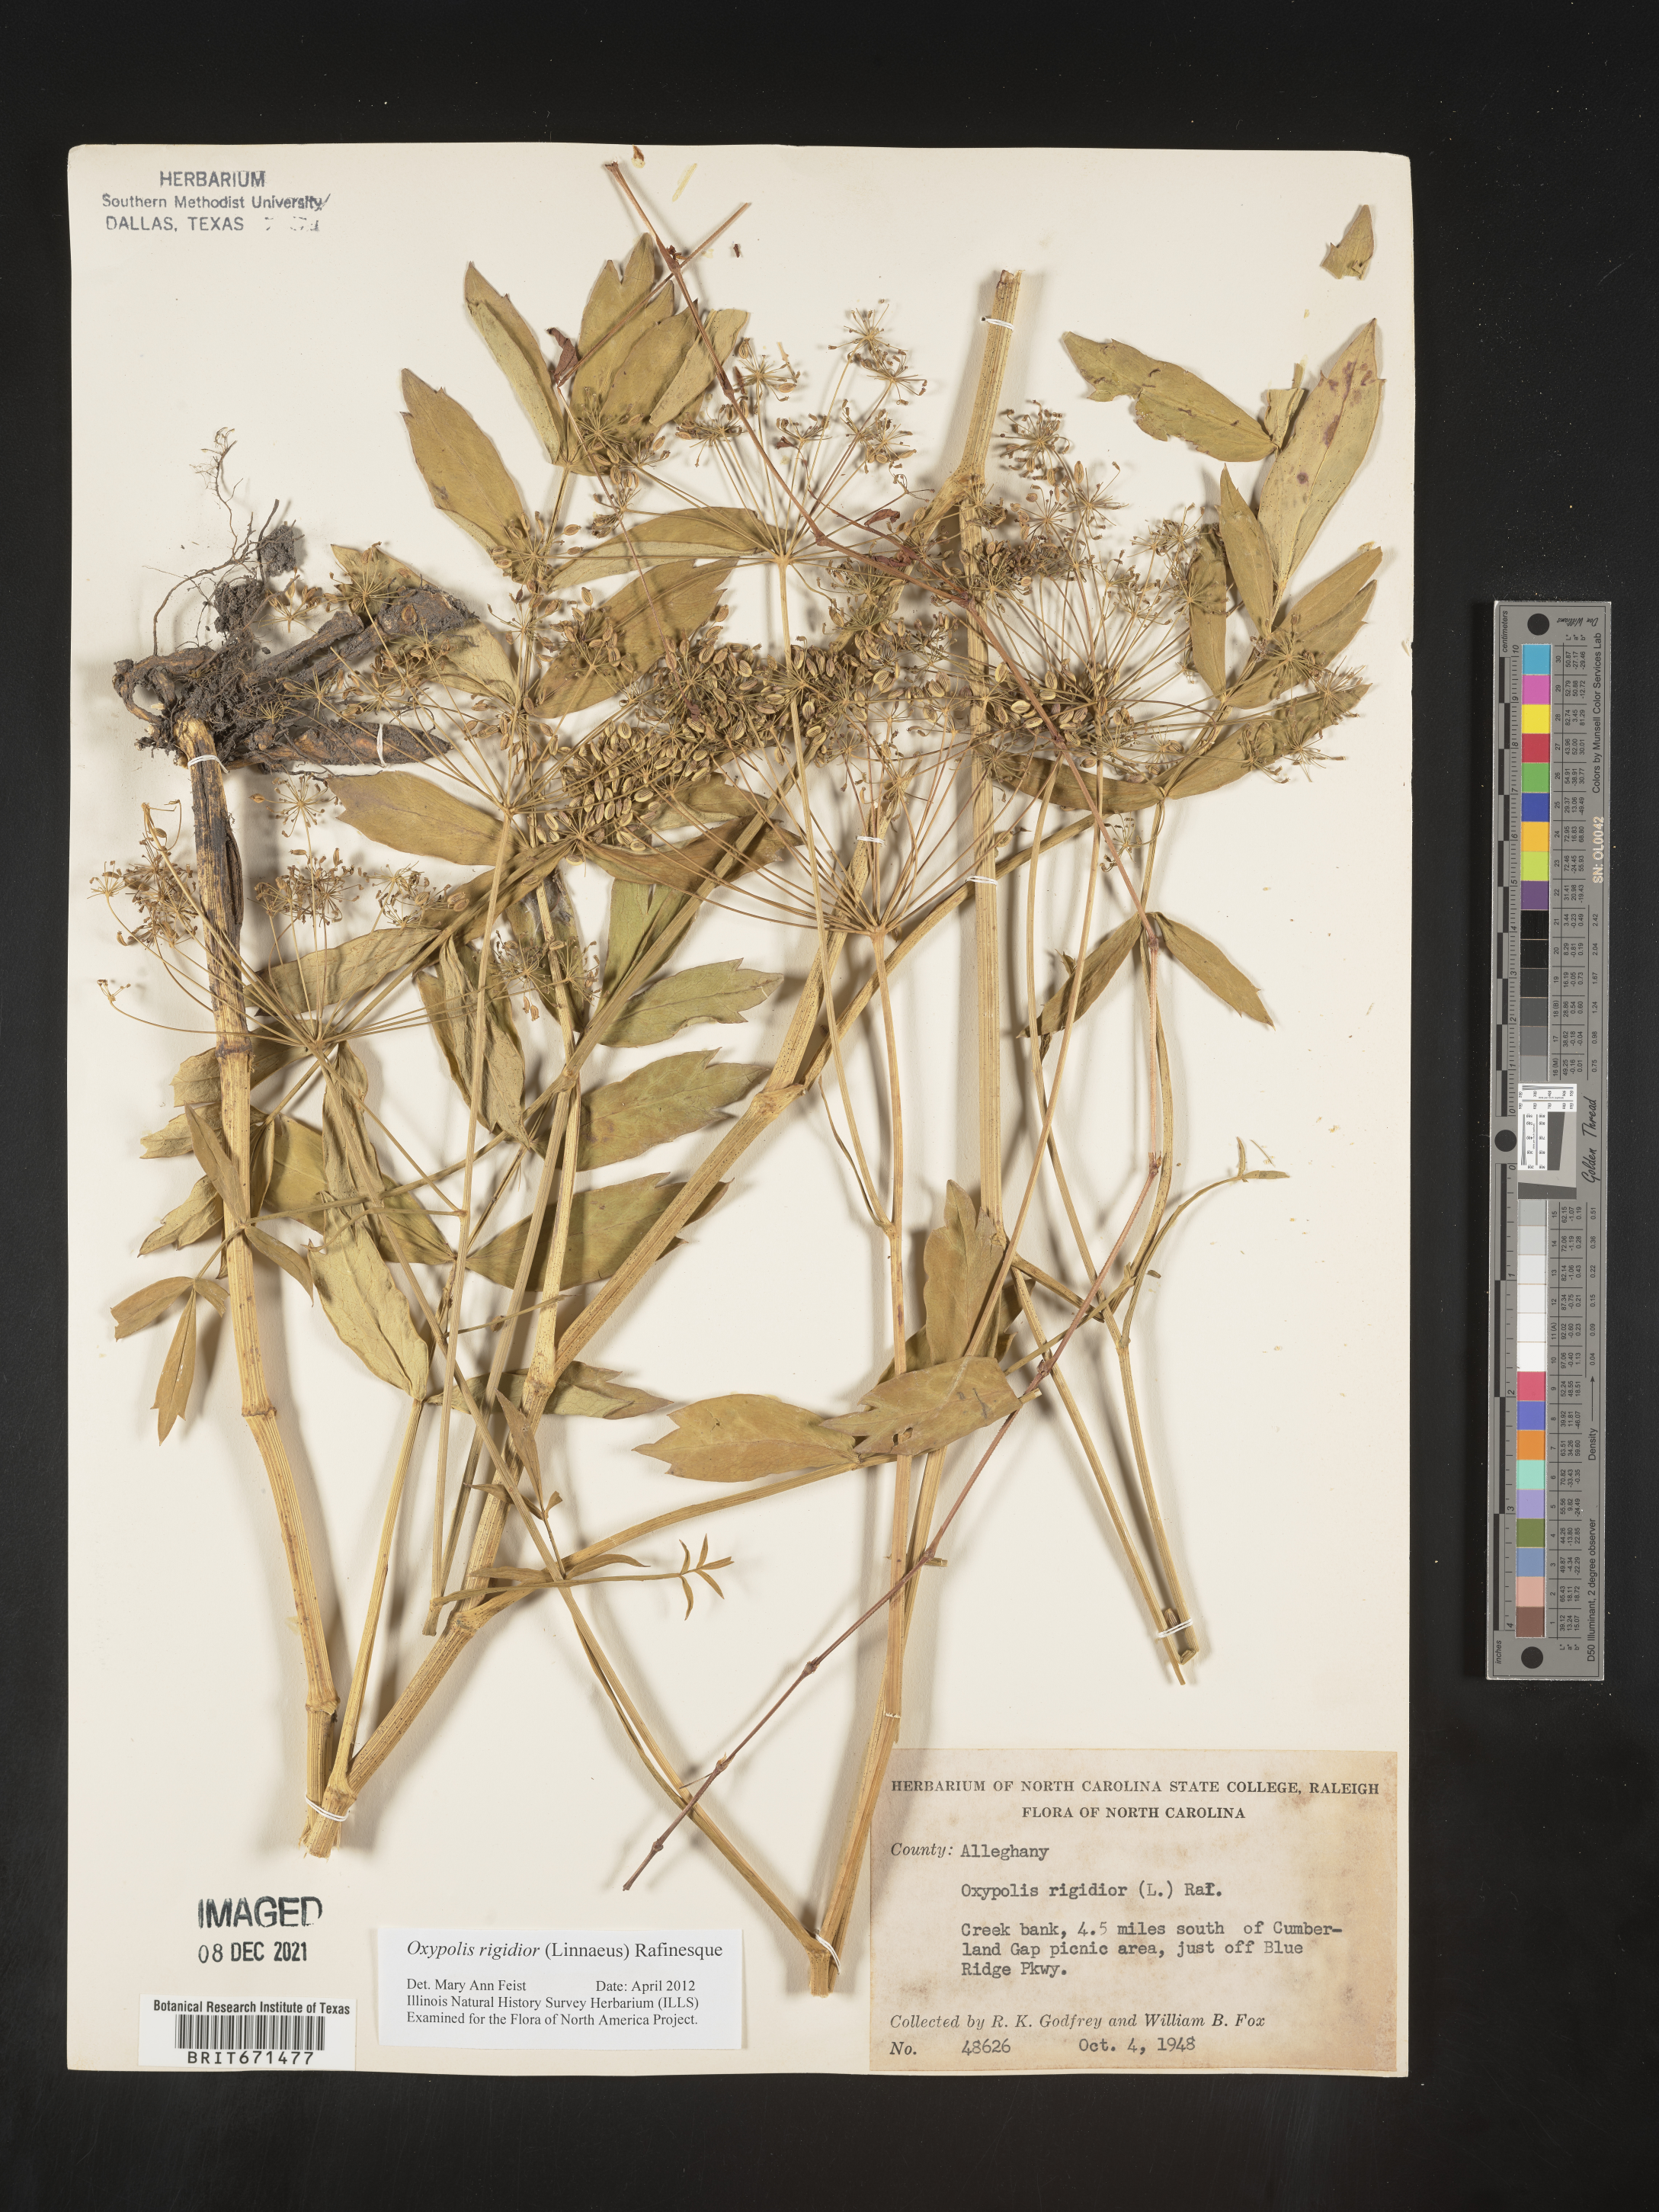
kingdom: Plantae
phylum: Tracheophyta
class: Magnoliopsida
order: Apiales
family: Apiaceae
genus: Oxypolis
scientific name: Oxypolis rigidior
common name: Cowbane
